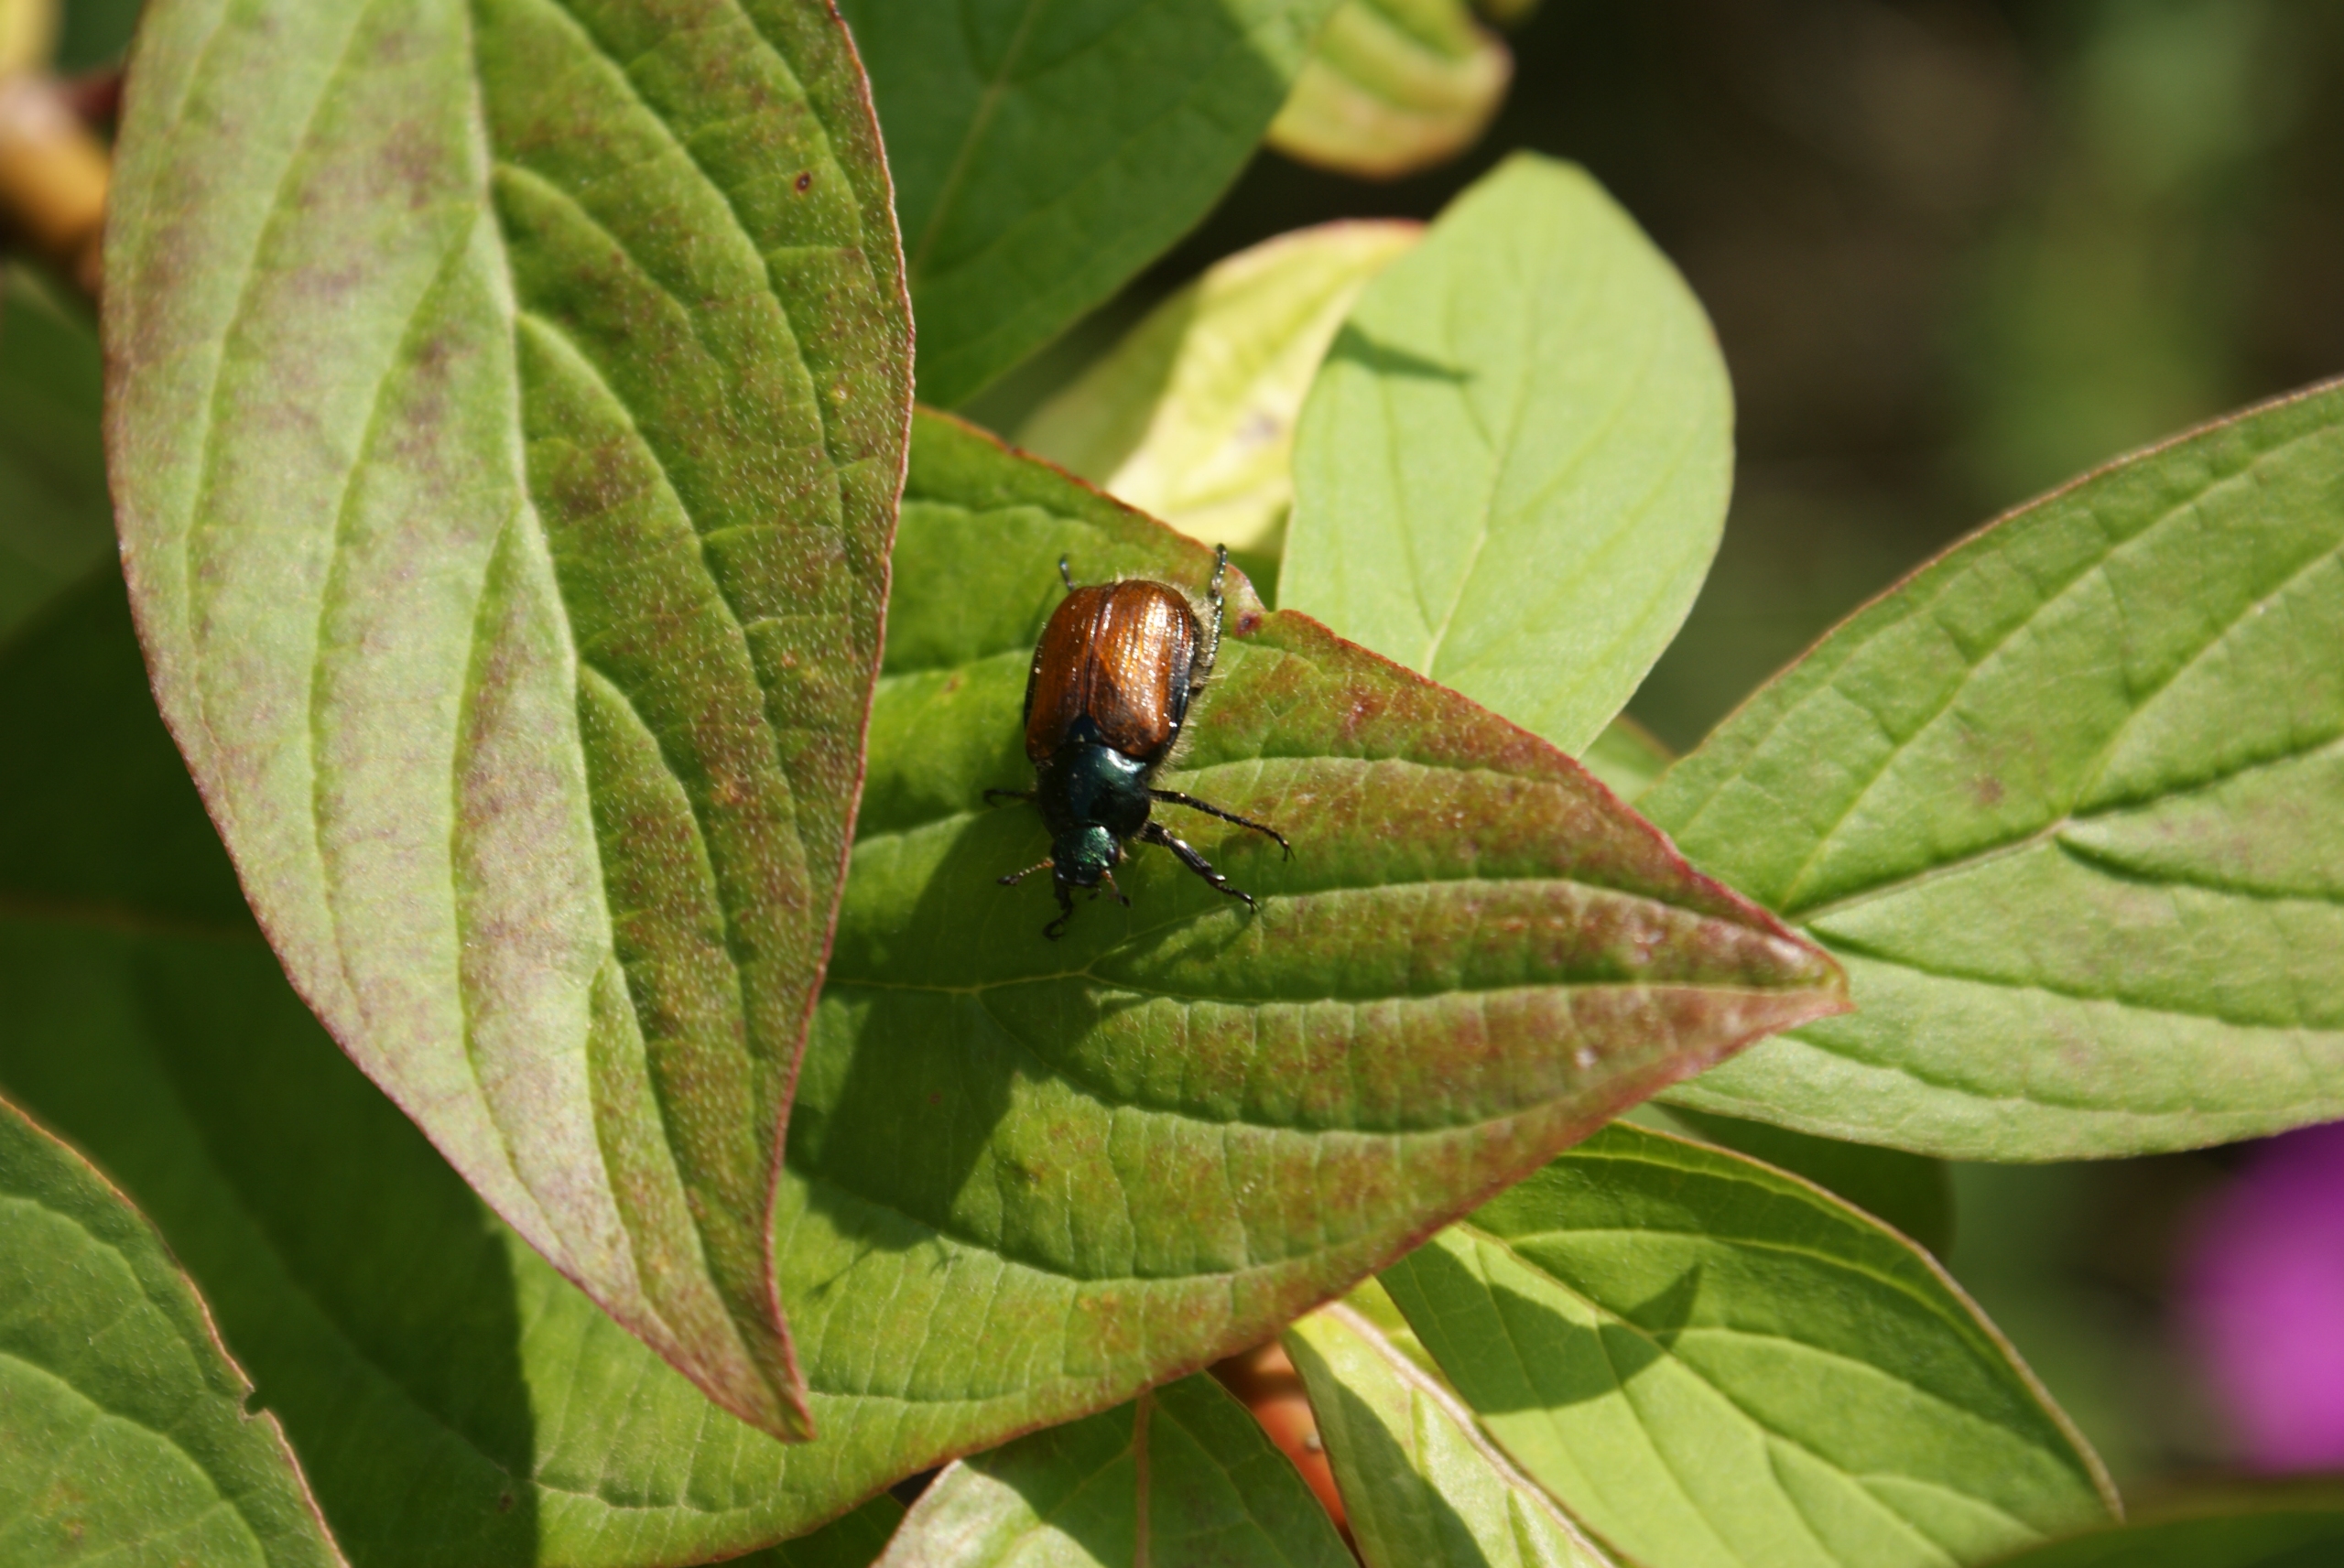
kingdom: Animalia
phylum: Arthropoda
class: Insecta
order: Coleoptera
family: Scarabaeidae
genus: Phyllopertha
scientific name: Phyllopertha horticola
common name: Gåsebille
